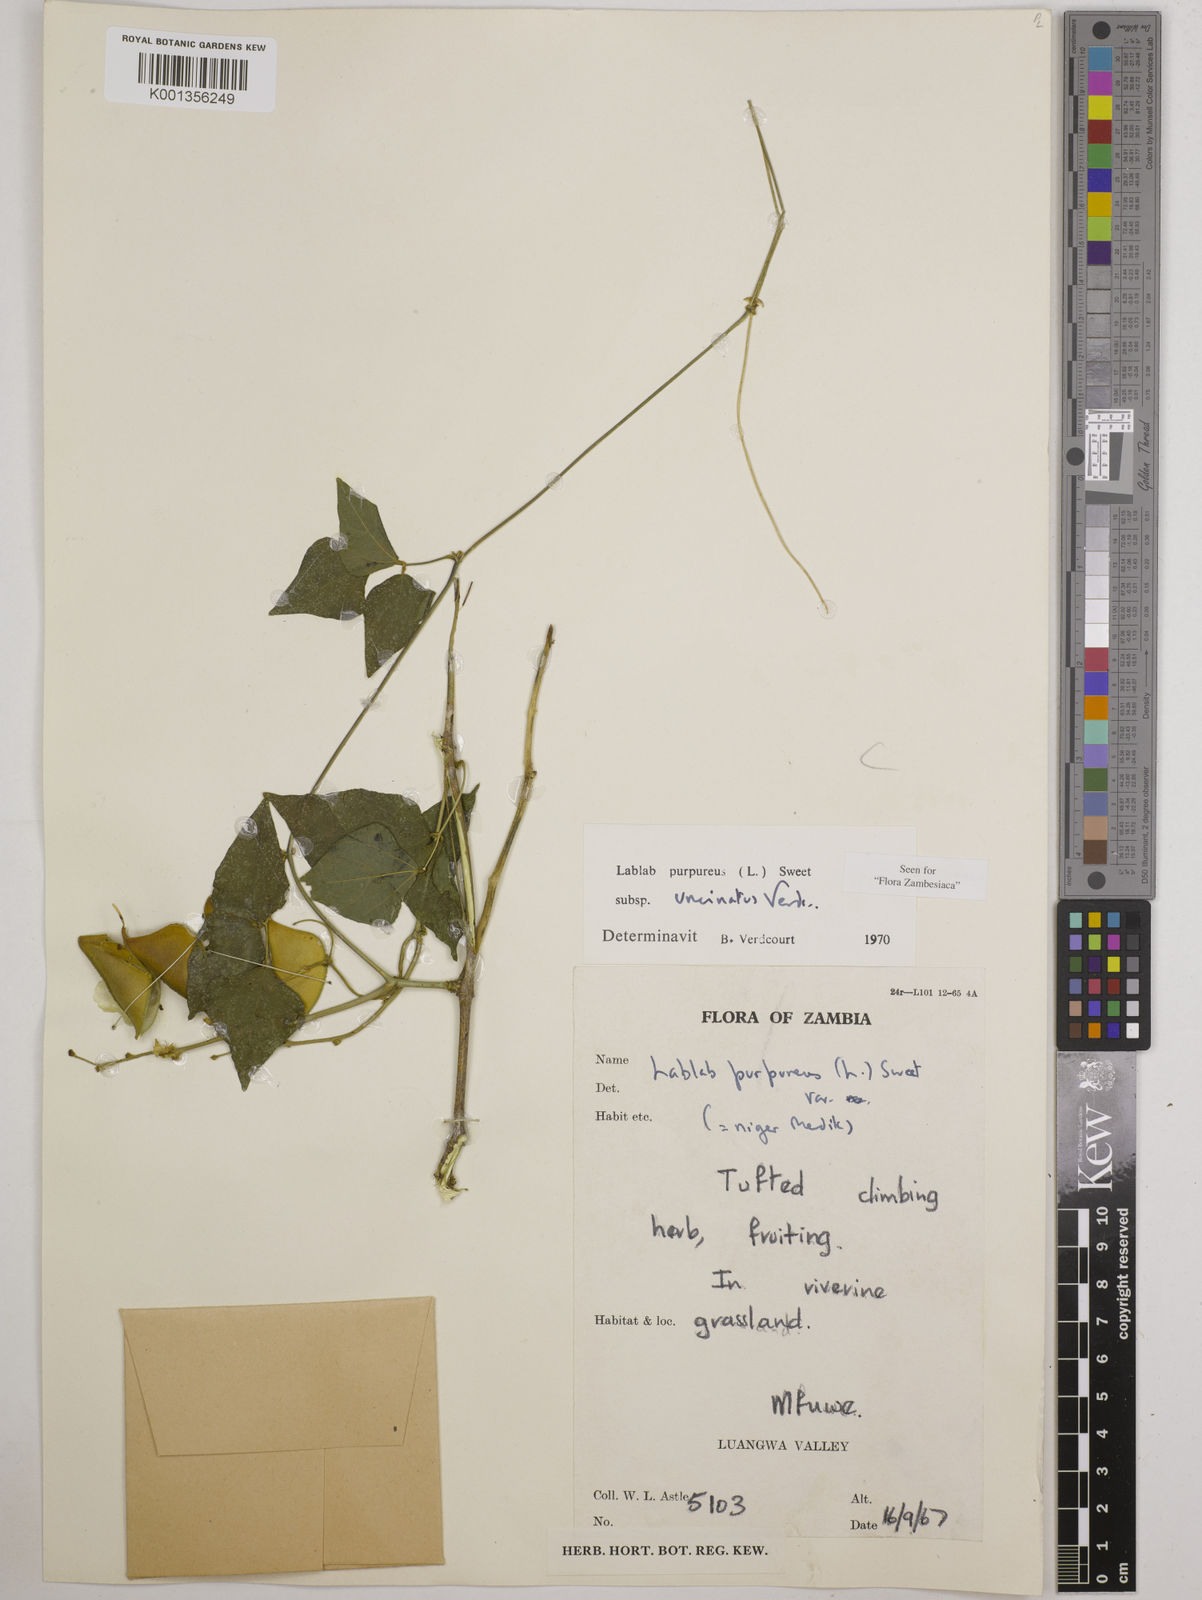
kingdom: Plantae
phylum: Tracheophyta
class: Magnoliopsida
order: Fabales
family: Fabaceae
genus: Lablab
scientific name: Lablab purpureus
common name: Lablab-bean
